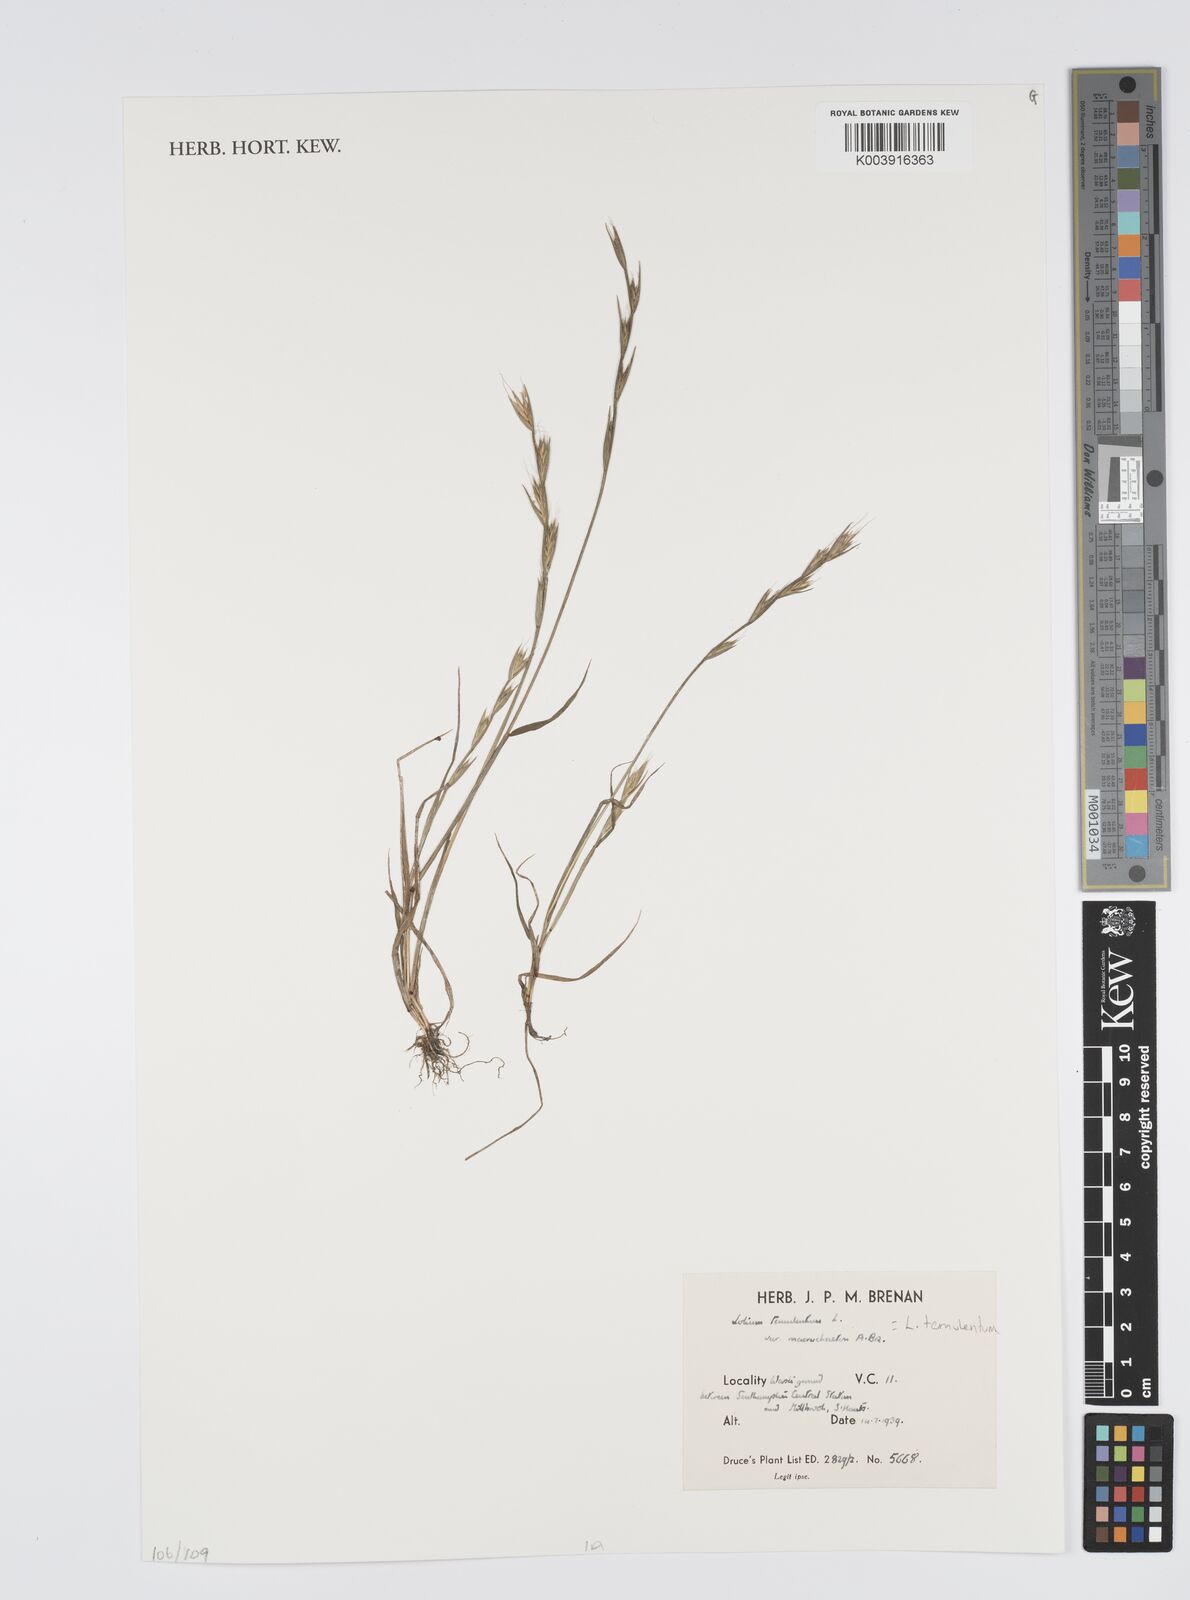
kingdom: Plantae
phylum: Tracheophyta
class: Liliopsida
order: Poales
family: Poaceae
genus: Lolium
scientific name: Lolium temulentum
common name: Darnel
